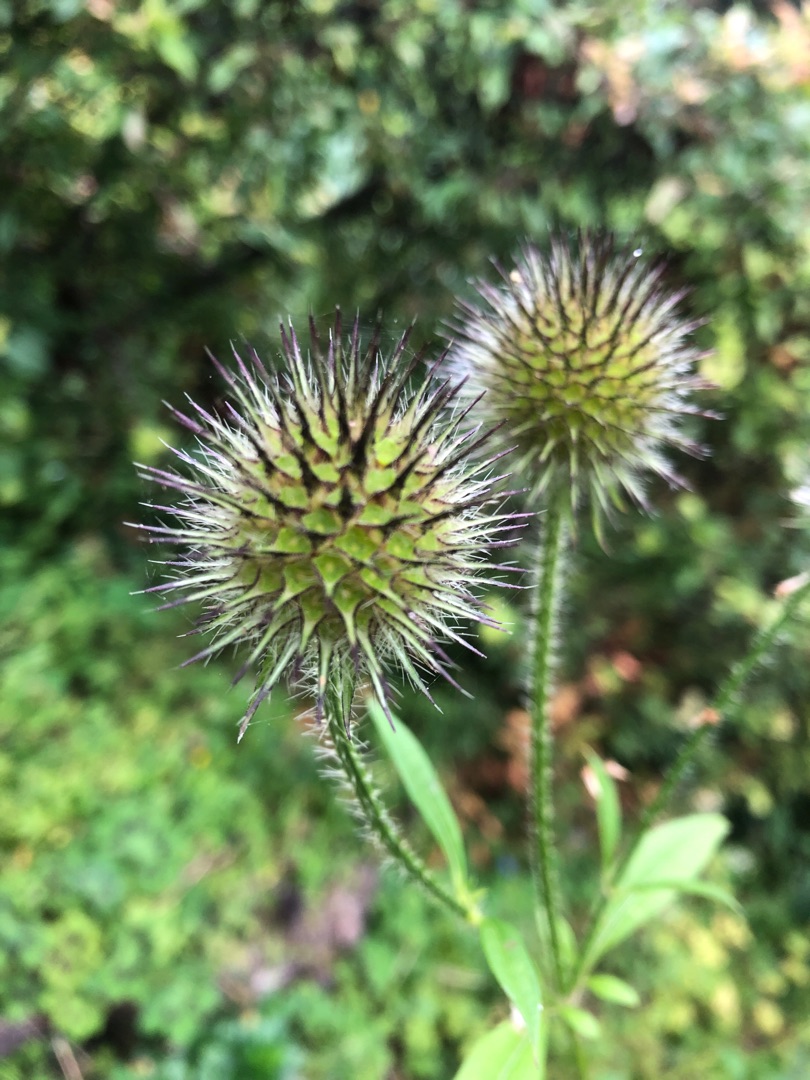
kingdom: Plantae
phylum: Tracheophyta
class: Magnoliopsida
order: Dipsacales
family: Caprifoliaceae
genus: Dipsacus
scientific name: Dipsacus strigosus
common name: Pindsvin-kartebolle
